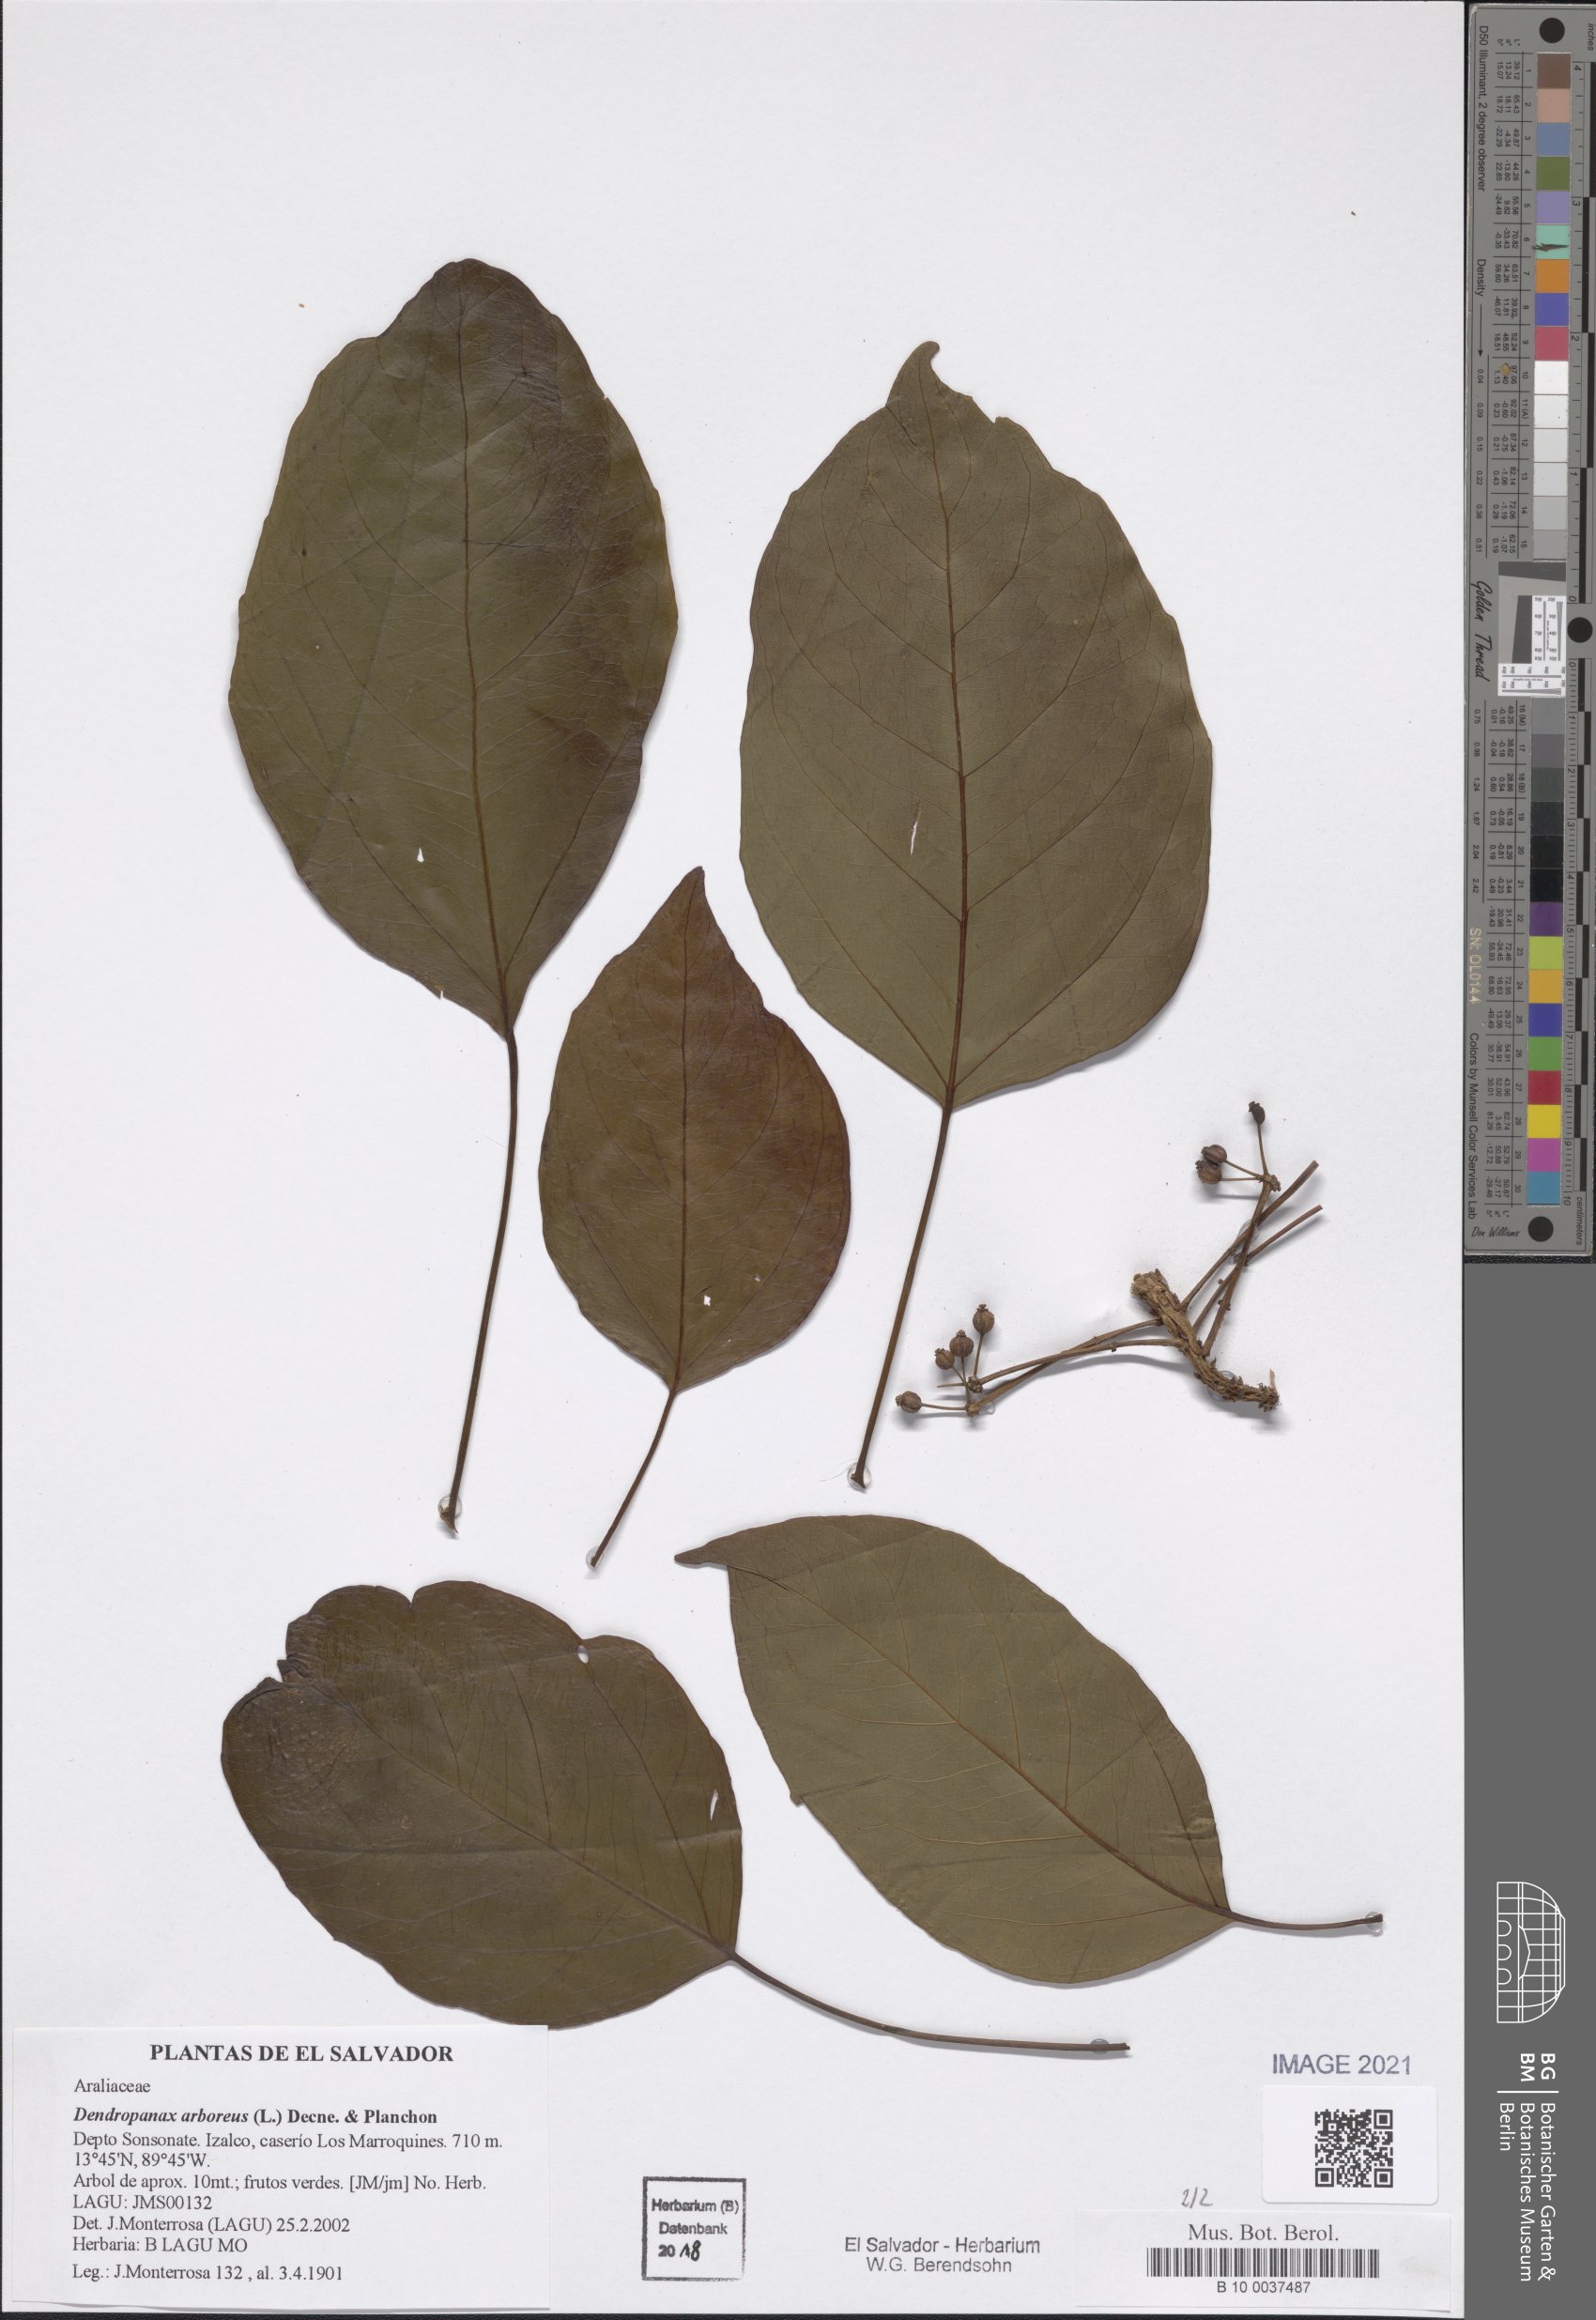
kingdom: Plantae
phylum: Tracheophyta
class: Magnoliopsida
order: Apiales
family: Araliaceae
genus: Dendropanax
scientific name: Dendropanax arboreus
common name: Potato-wood
